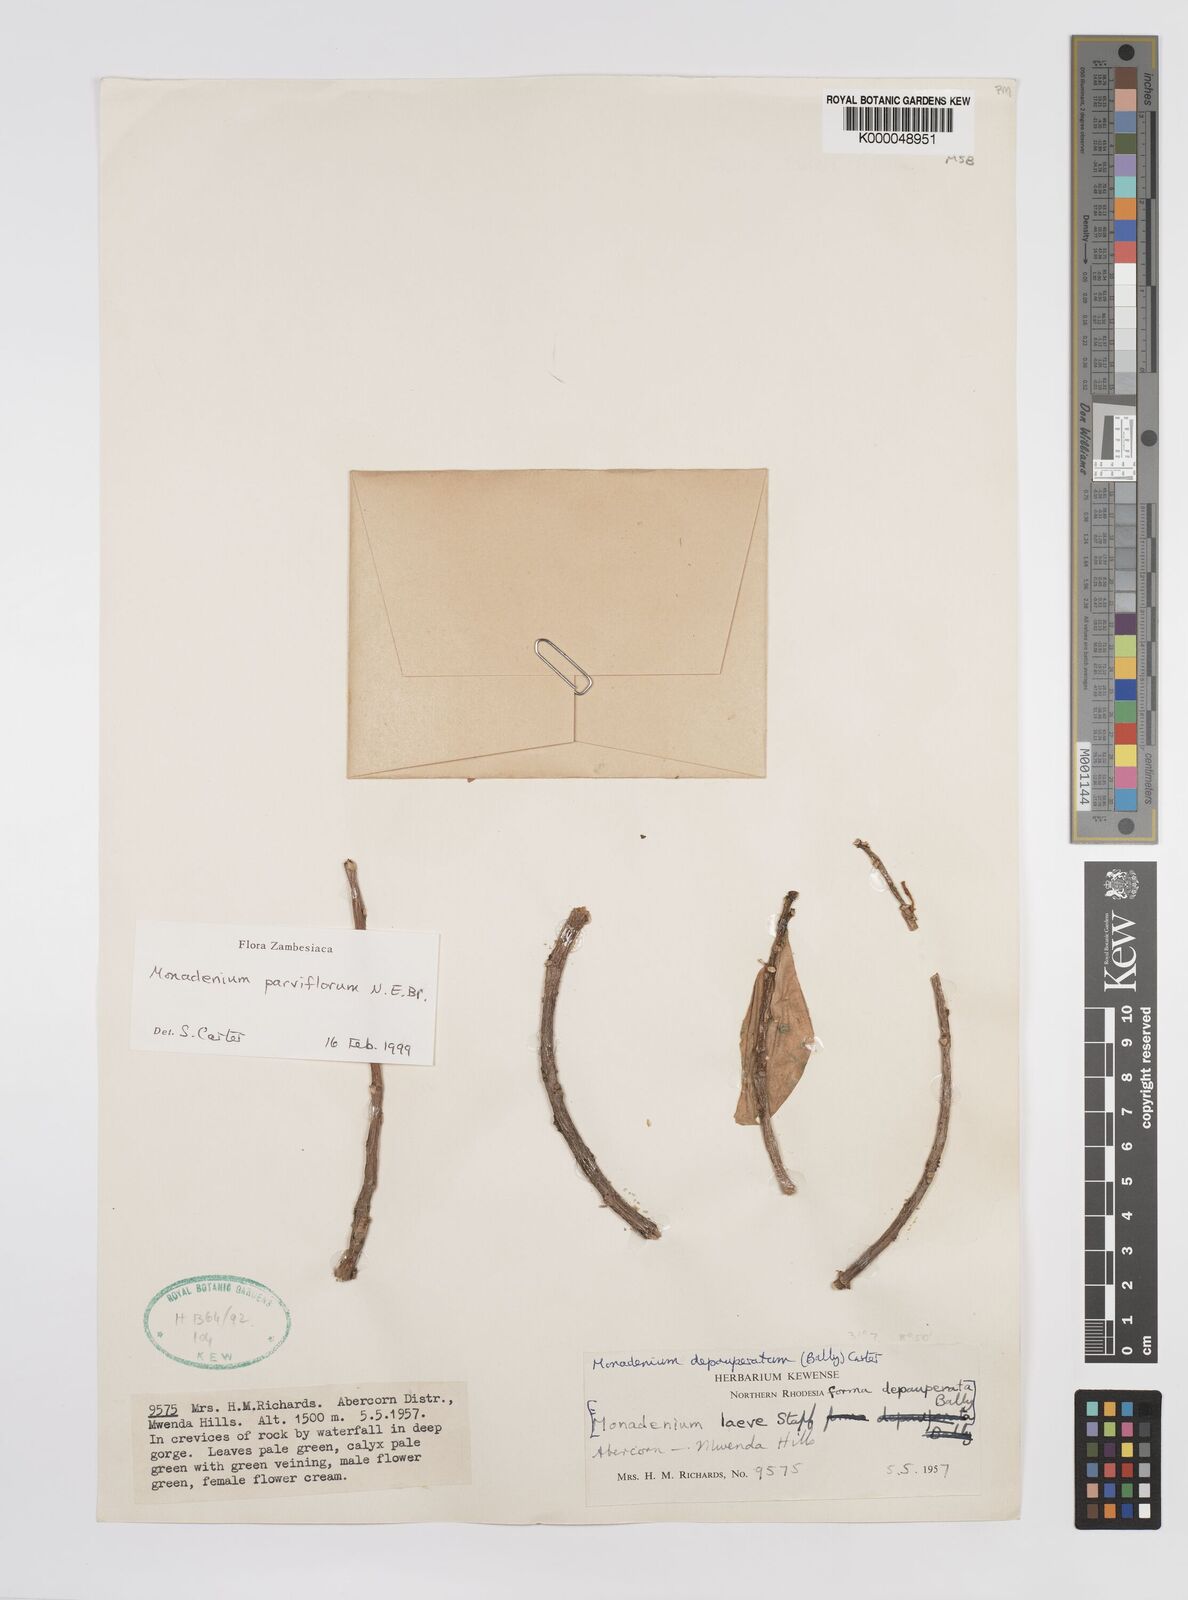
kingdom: Plantae
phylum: Tracheophyta
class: Magnoliopsida
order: Malpighiales
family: Euphorbiaceae
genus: Euphorbia
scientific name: Euphorbia neoparviflora
